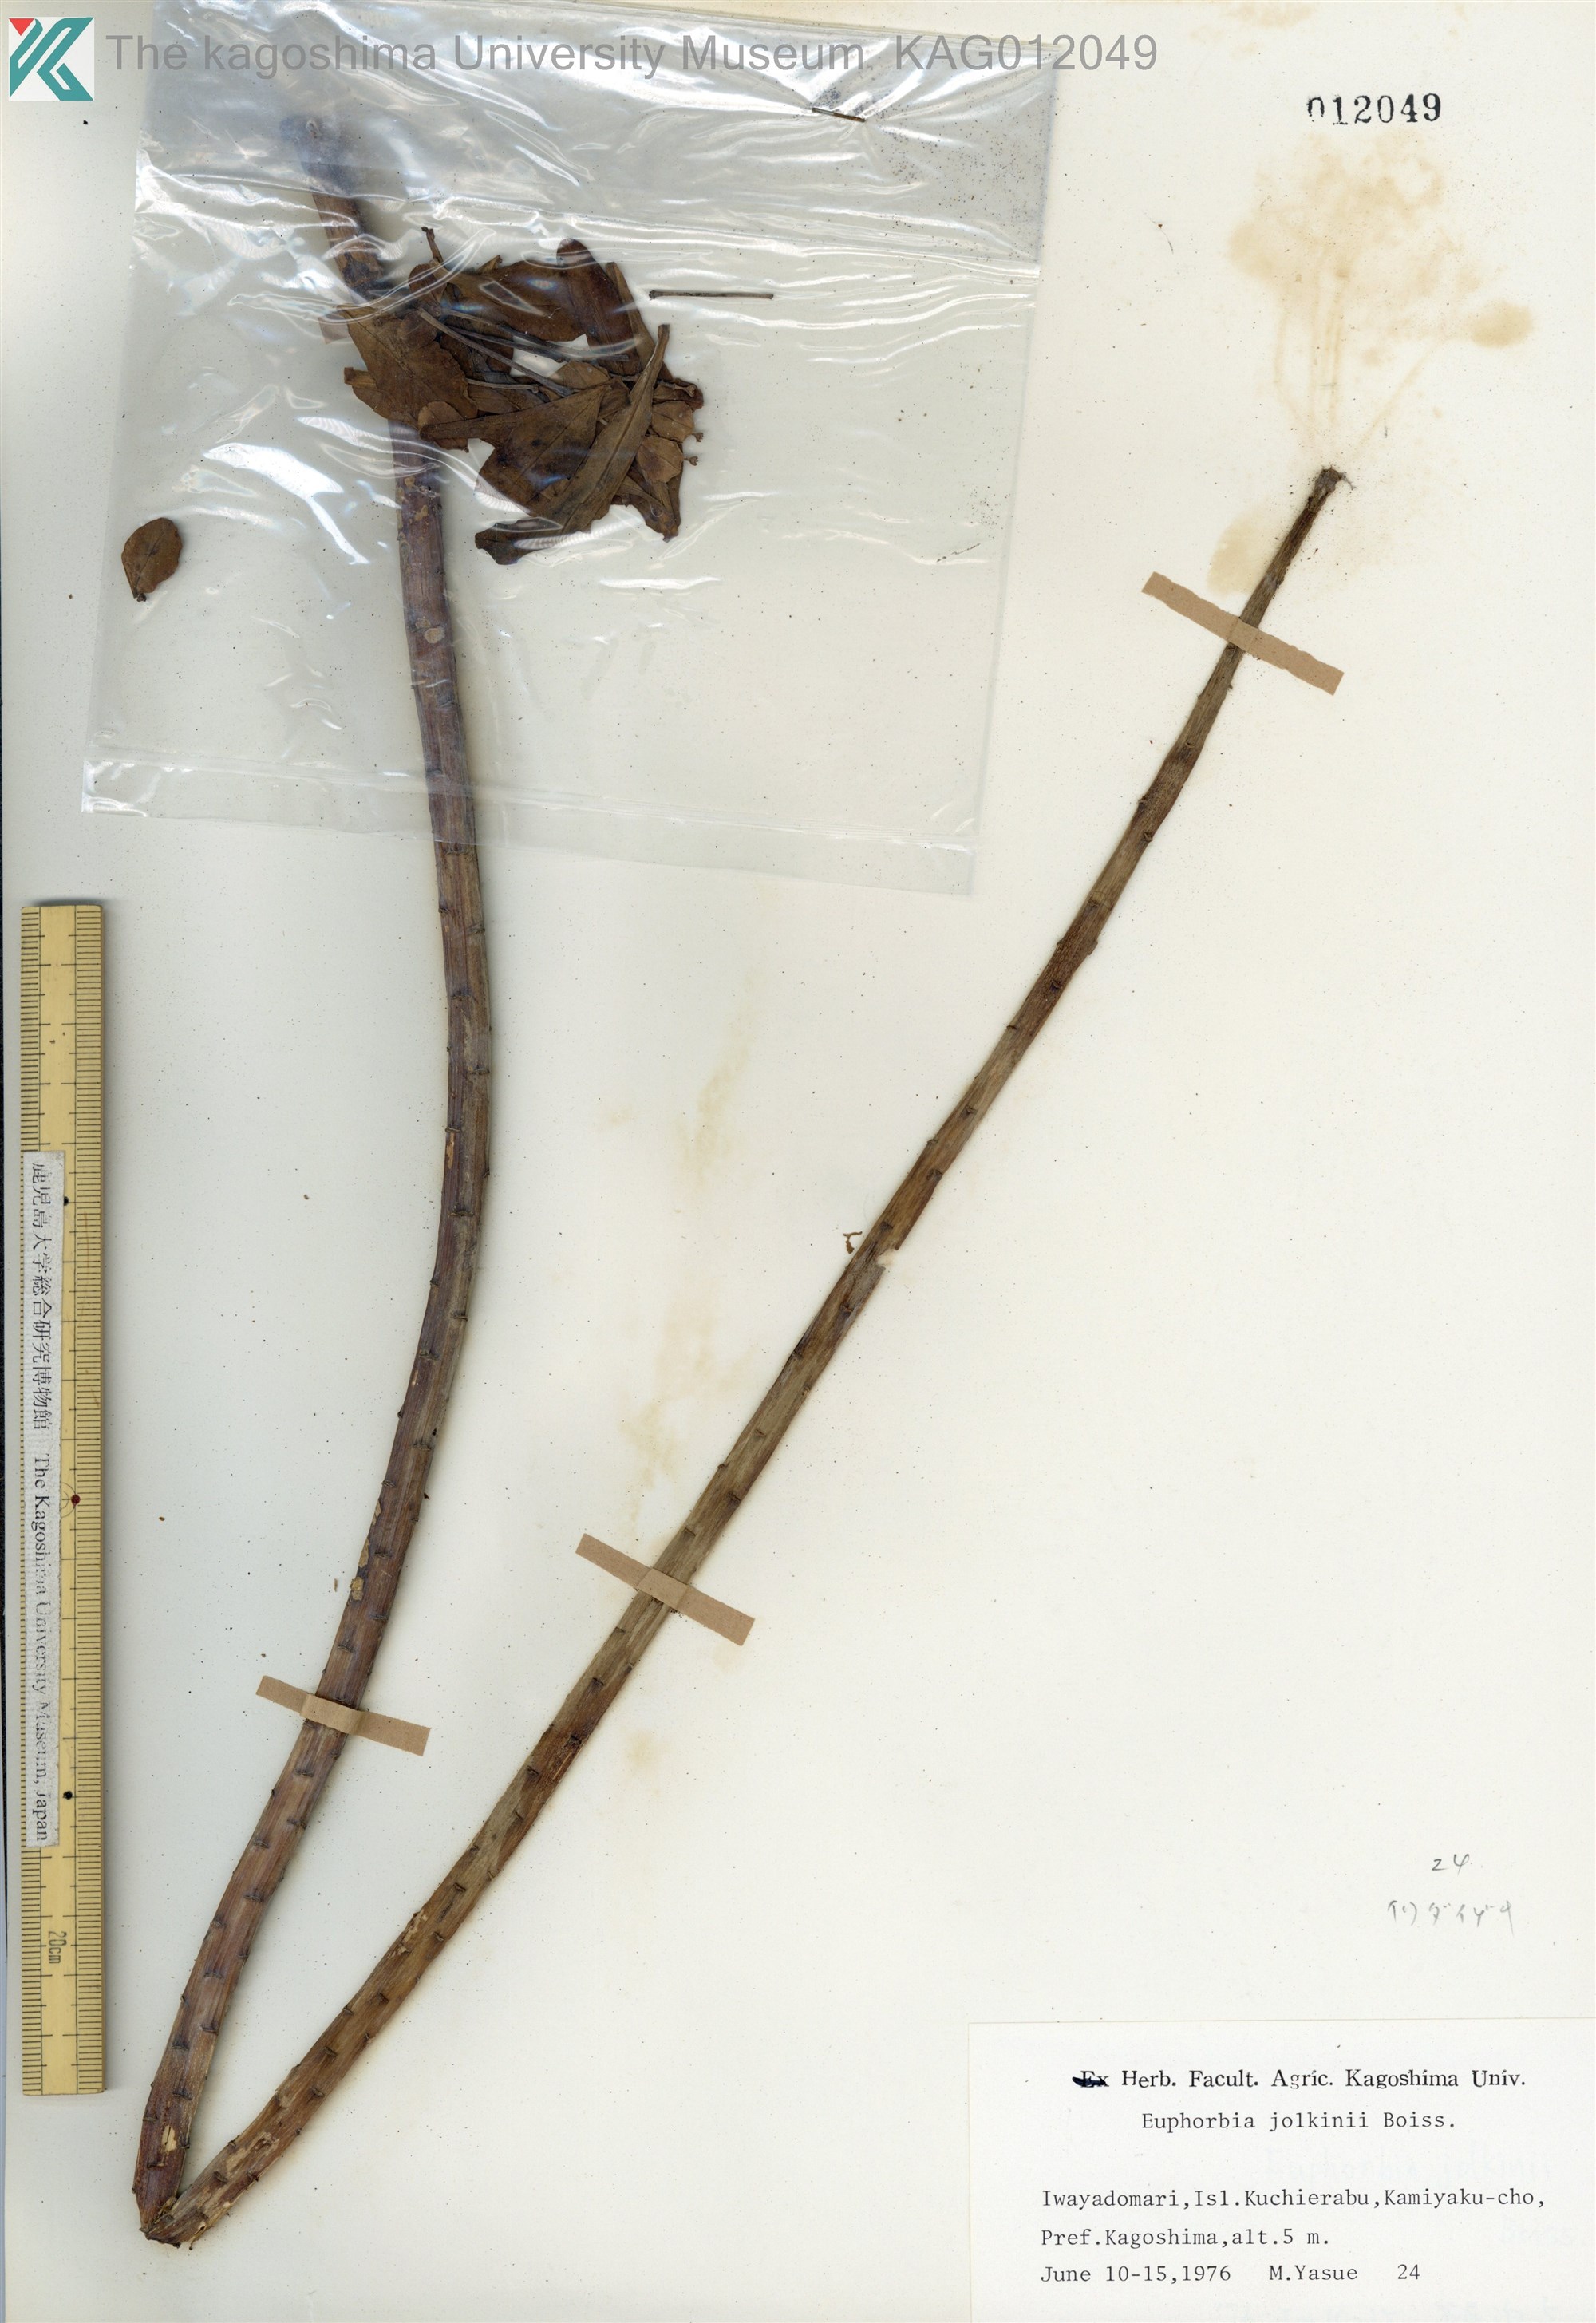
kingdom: Plantae
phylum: Tracheophyta
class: Magnoliopsida
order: Malpighiales
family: Euphorbiaceae
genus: Euphorbia
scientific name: Euphorbia jolkinii
